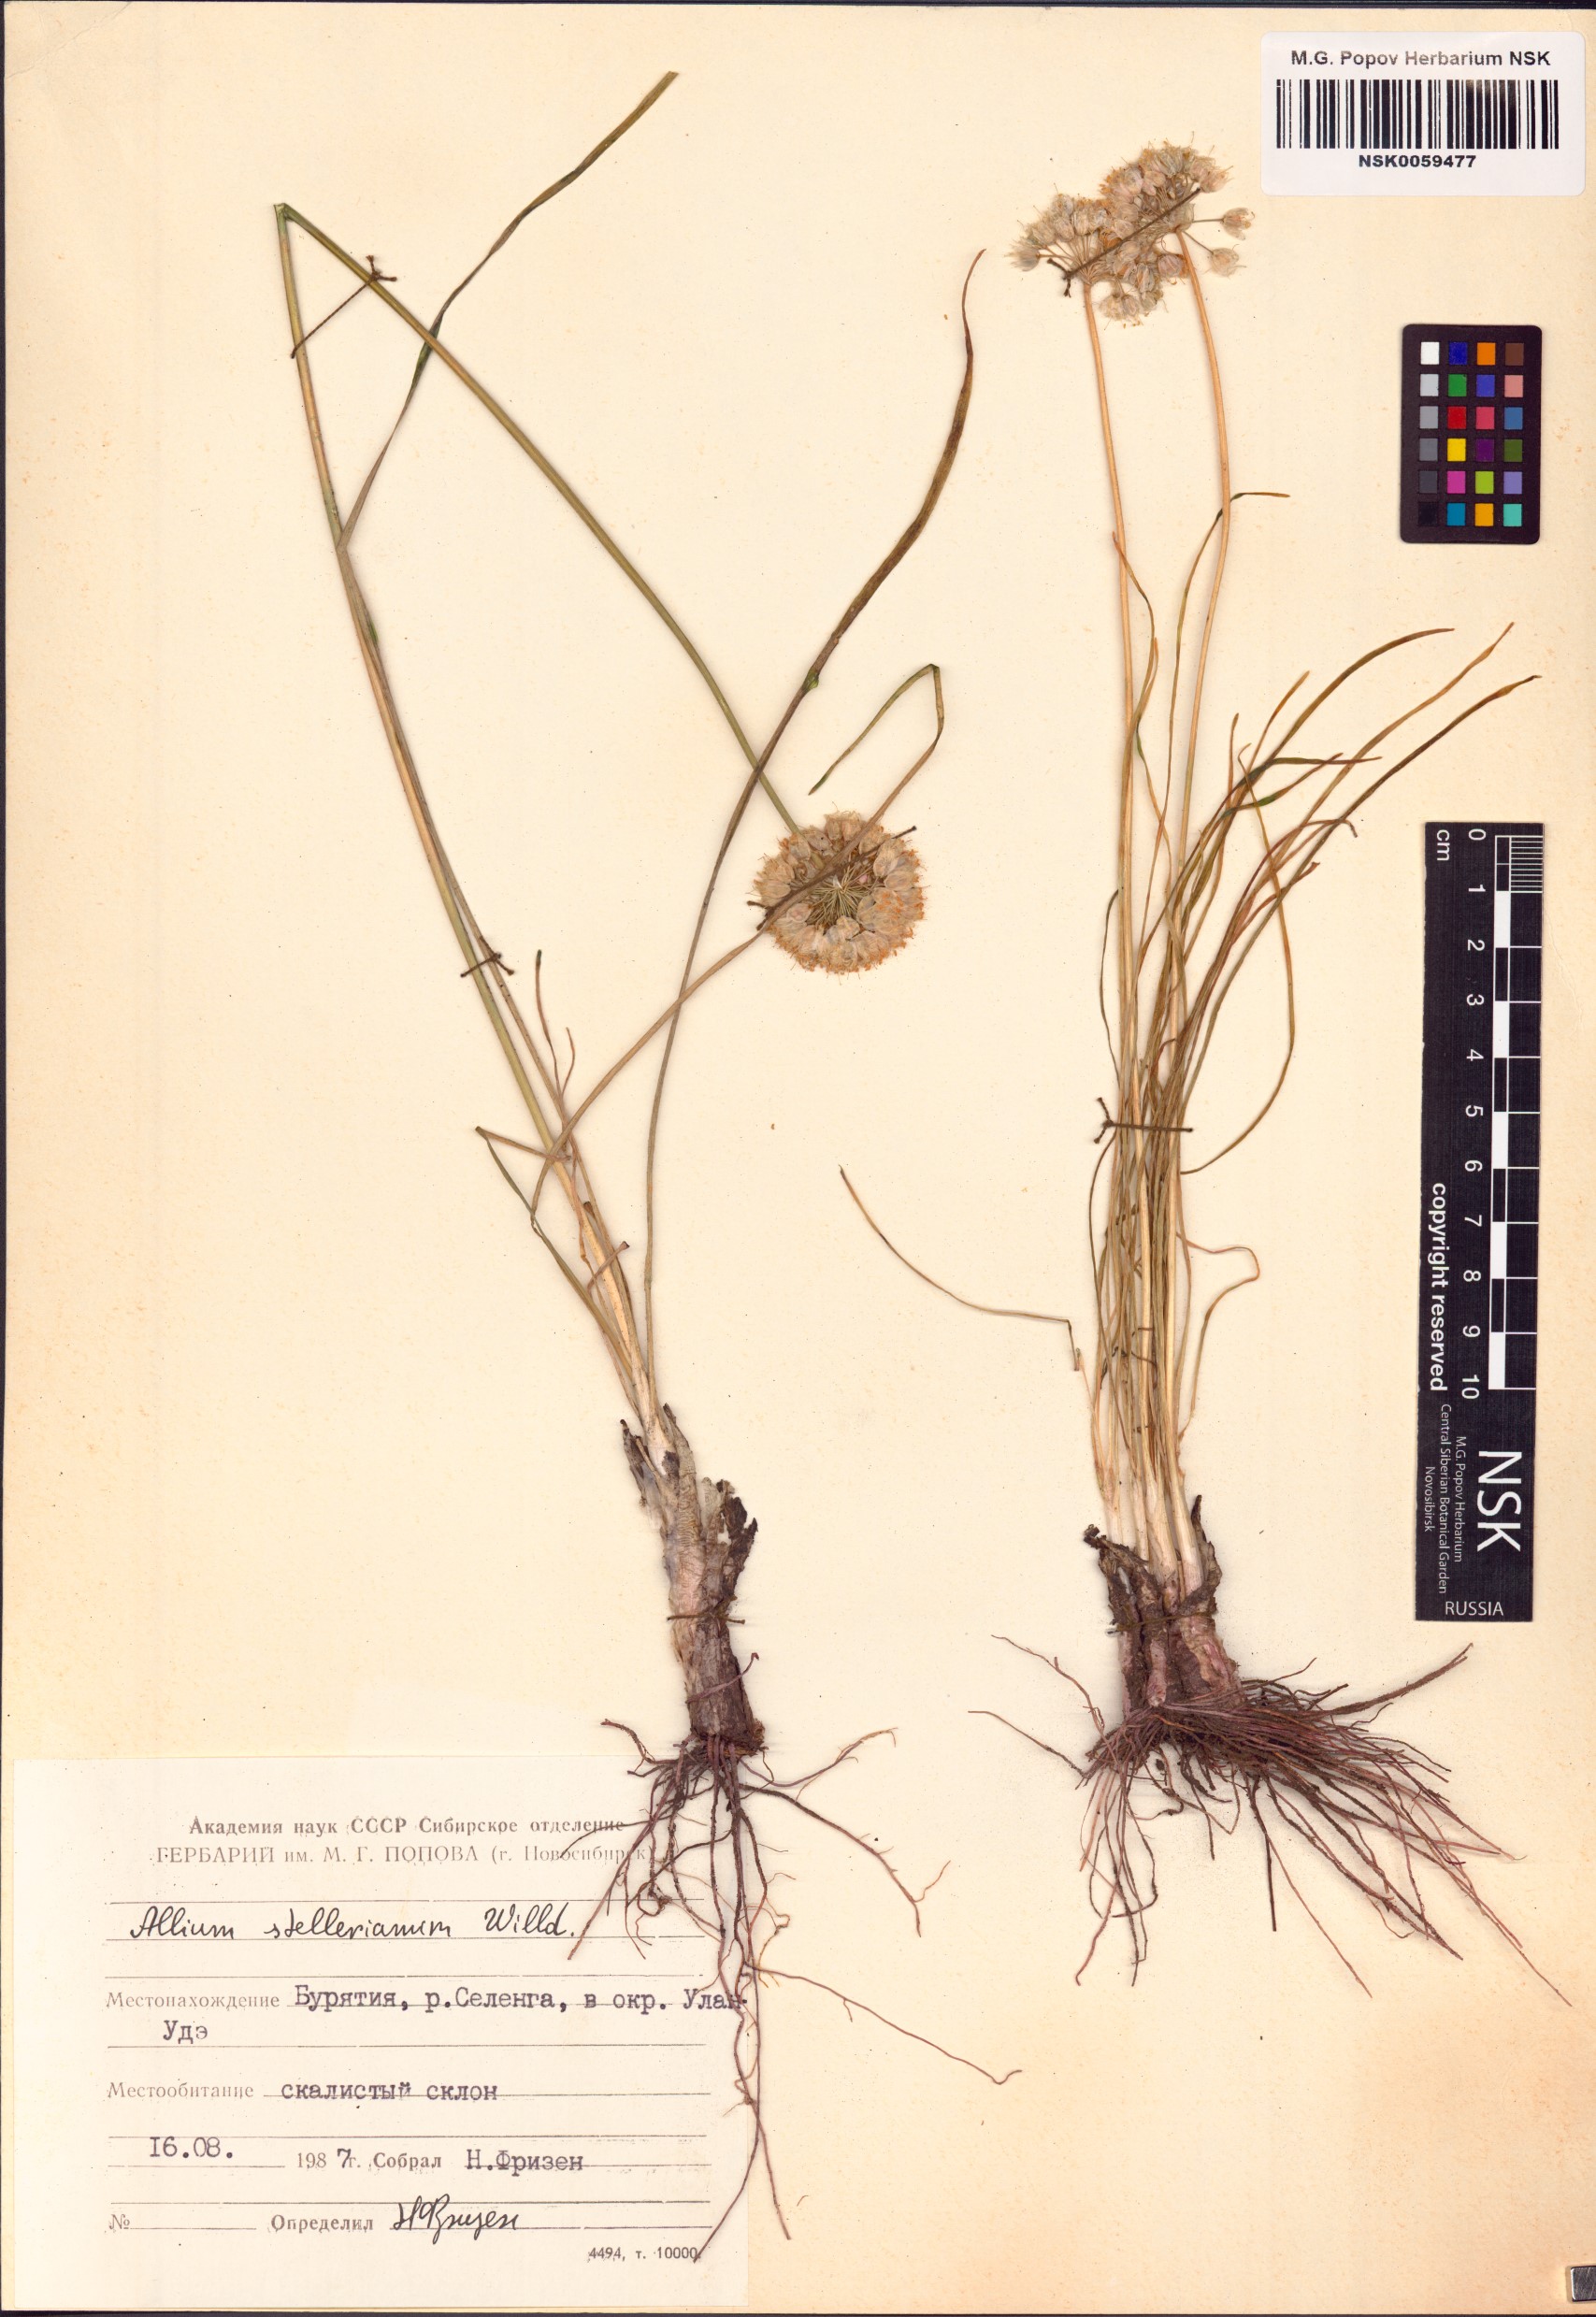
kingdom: Plantae
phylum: Tracheophyta
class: Liliopsida
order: Asparagales
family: Amaryllidaceae
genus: Allium
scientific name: Allium stellerianum
